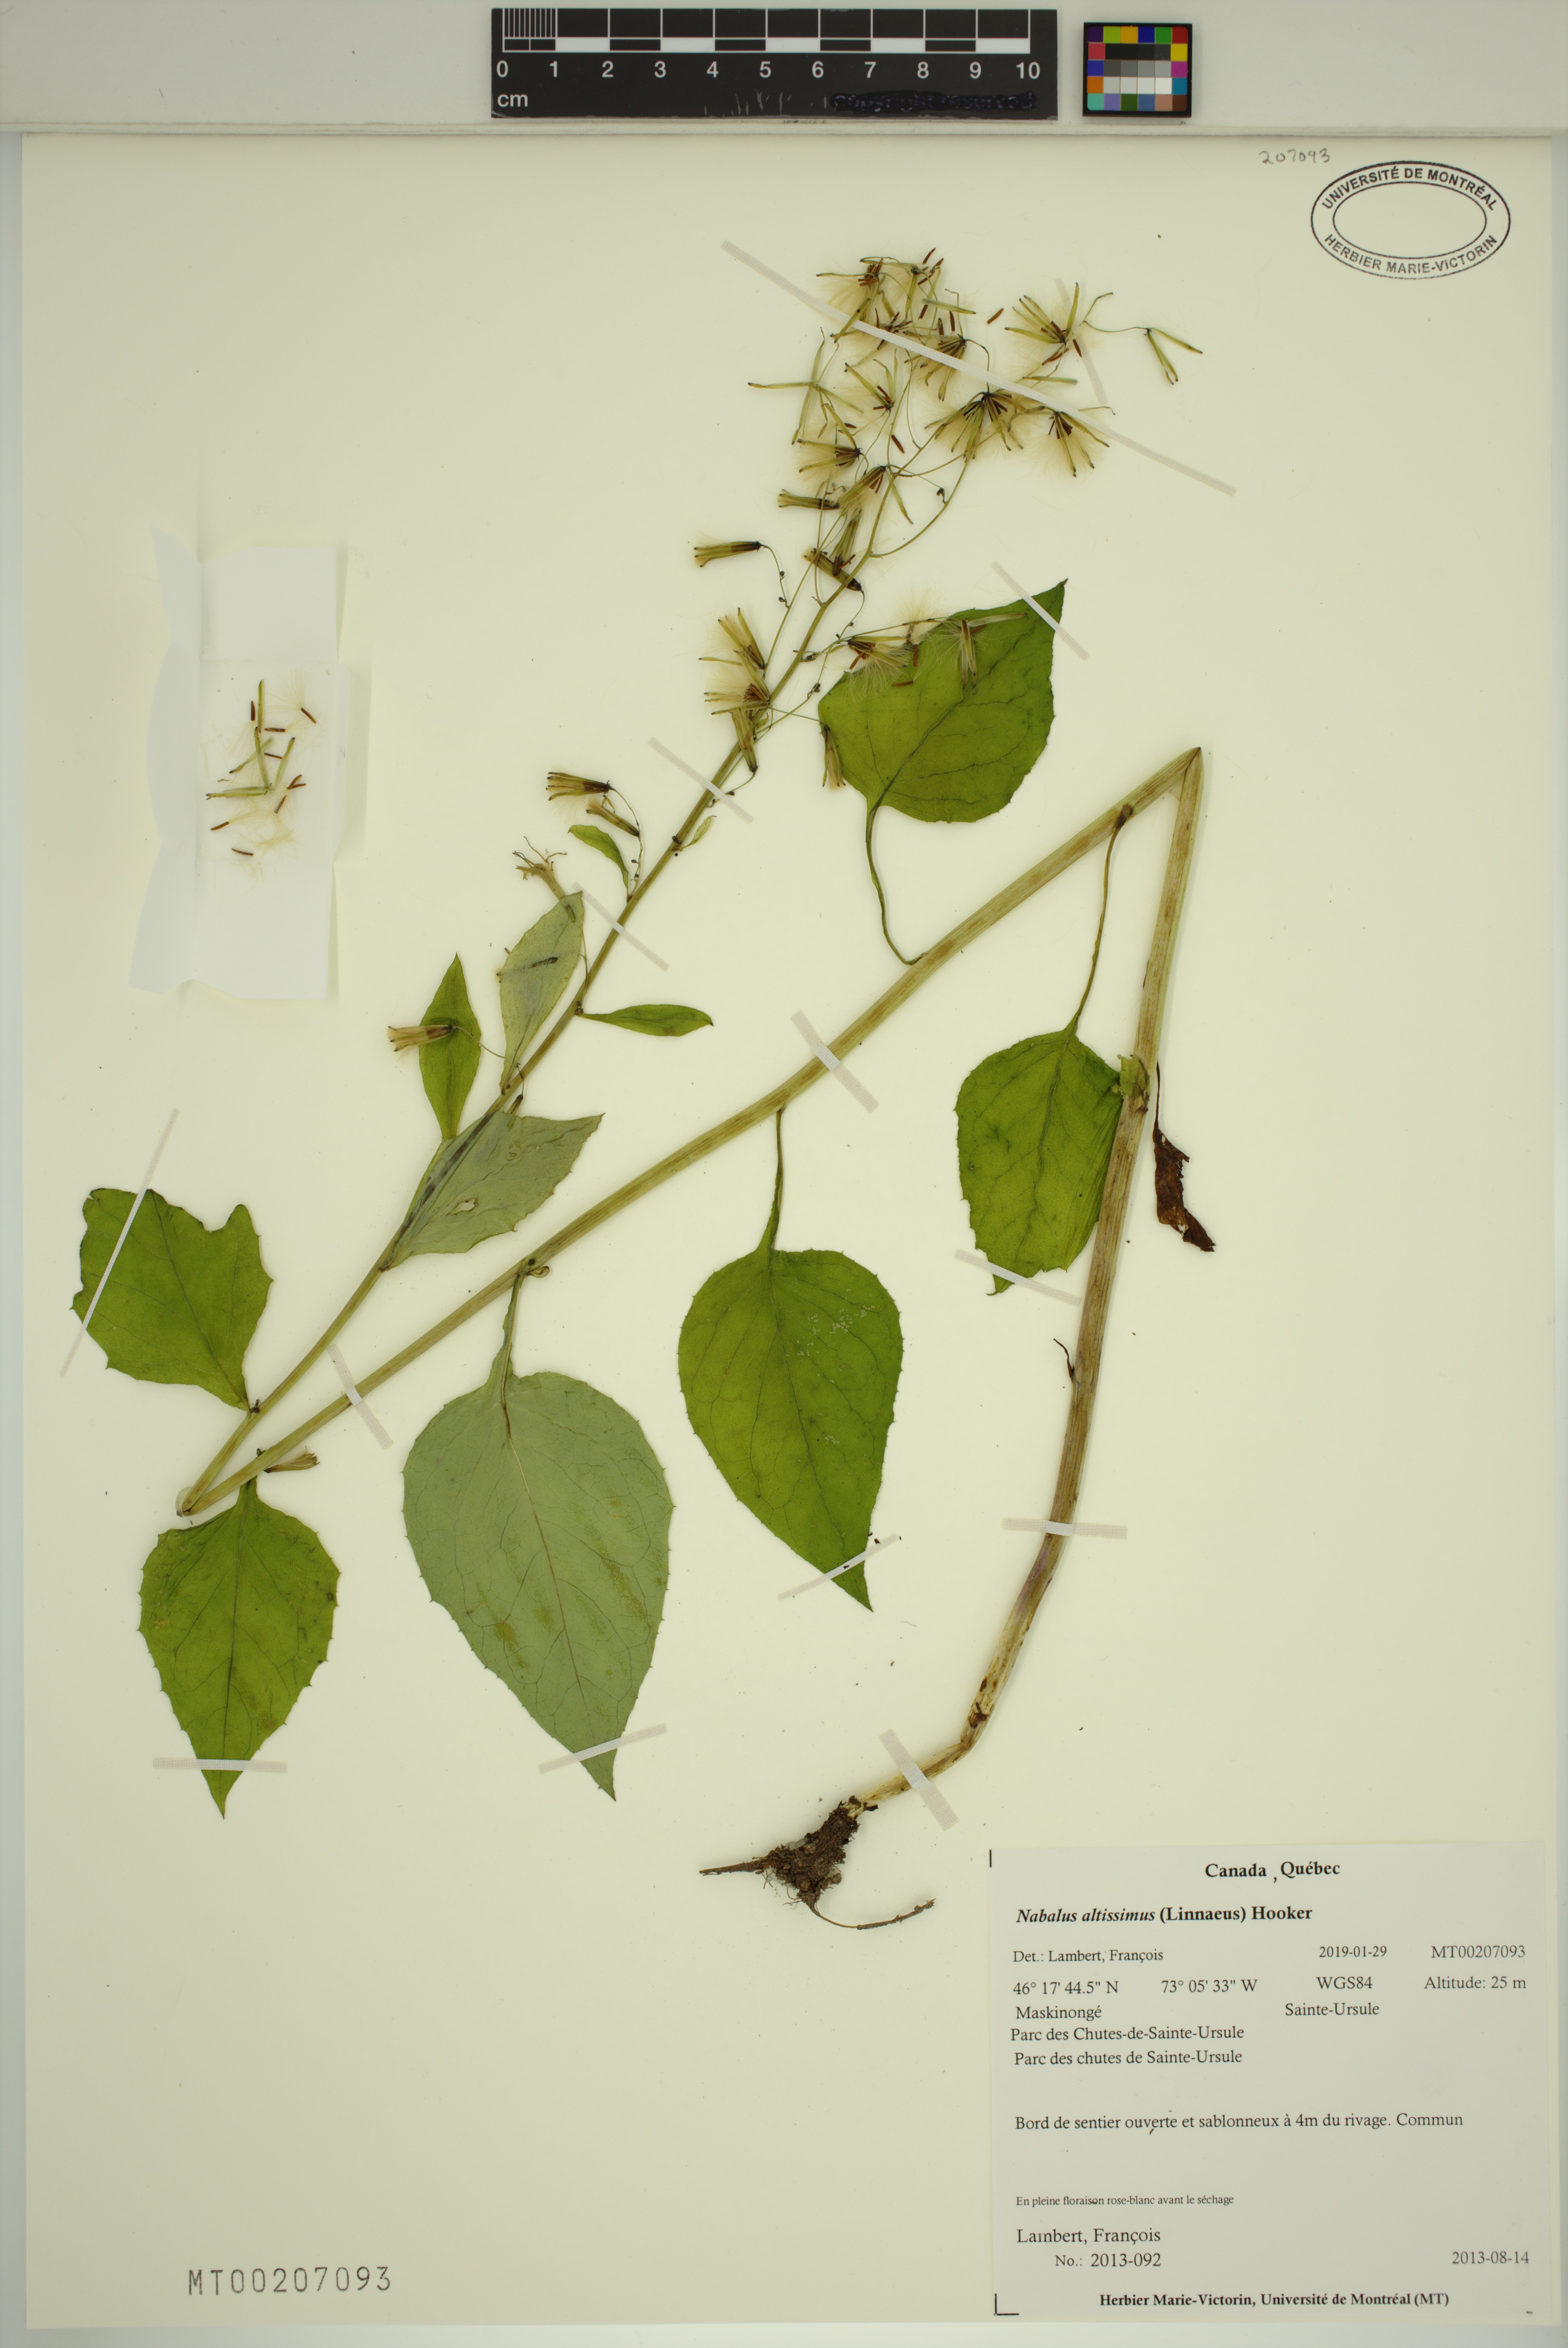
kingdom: Plantae
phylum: Tracheophyta
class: Magnoliopsida
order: Asterales
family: Asteraceae
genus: Nabalus
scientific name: Nabalus altissima
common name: Tall rattlesnakeroot
